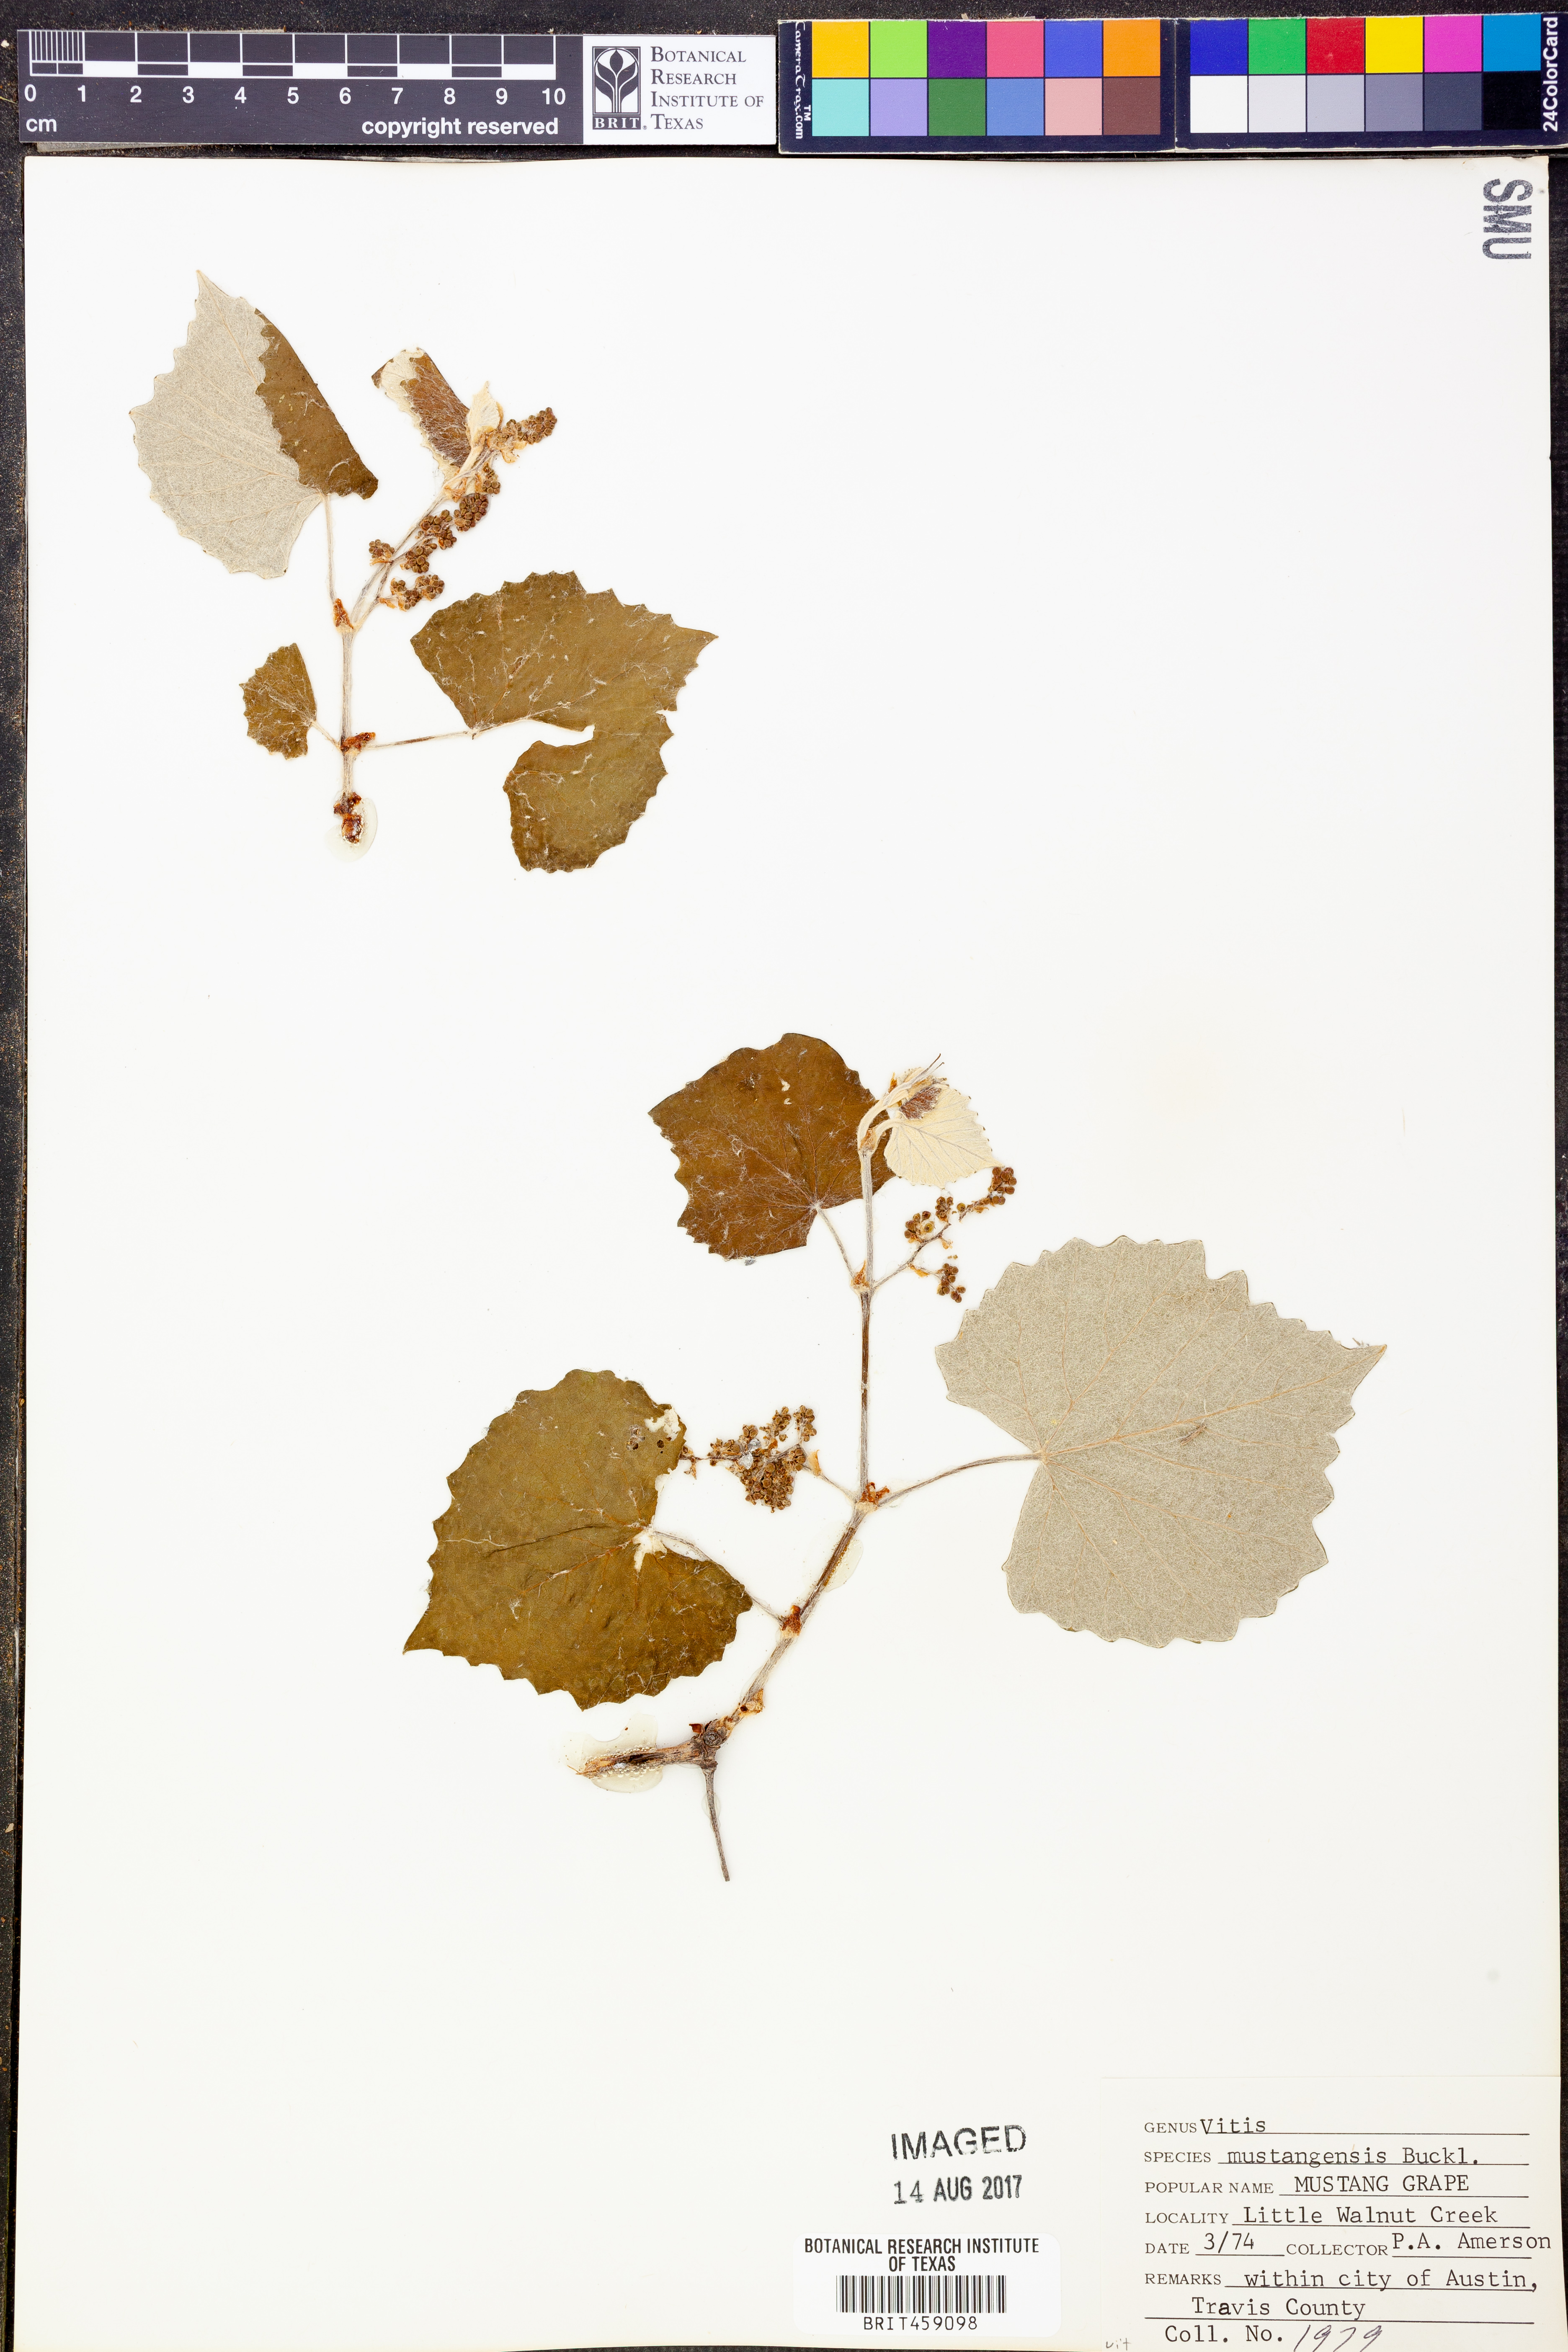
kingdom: Plantae
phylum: Tracheophyta
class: Magnoliopsida
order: Vitales
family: Vitaceae
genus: Vitis
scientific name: Vitis mustangensis
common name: Mustang grape
